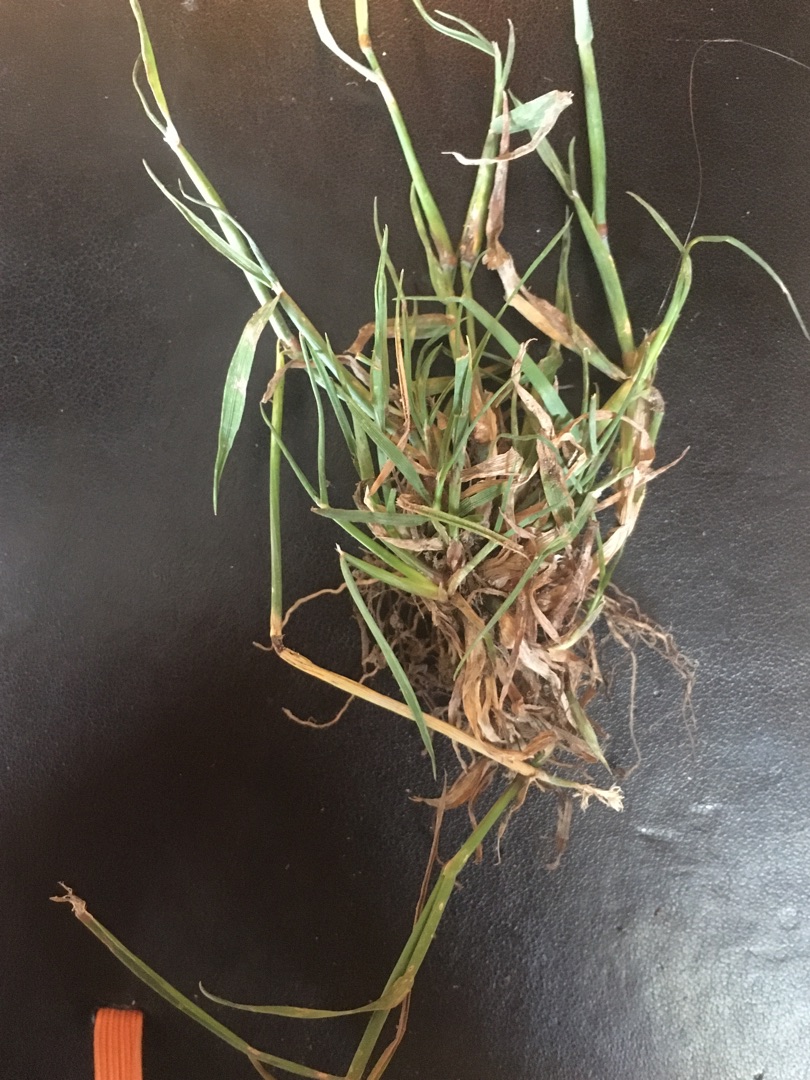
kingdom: Plantae
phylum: Tracheophyta
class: Liliopsida
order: Poales
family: Poaceae
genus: Alopecurus
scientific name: Alopecurus geniculatus
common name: Knæbøjet rævehale
